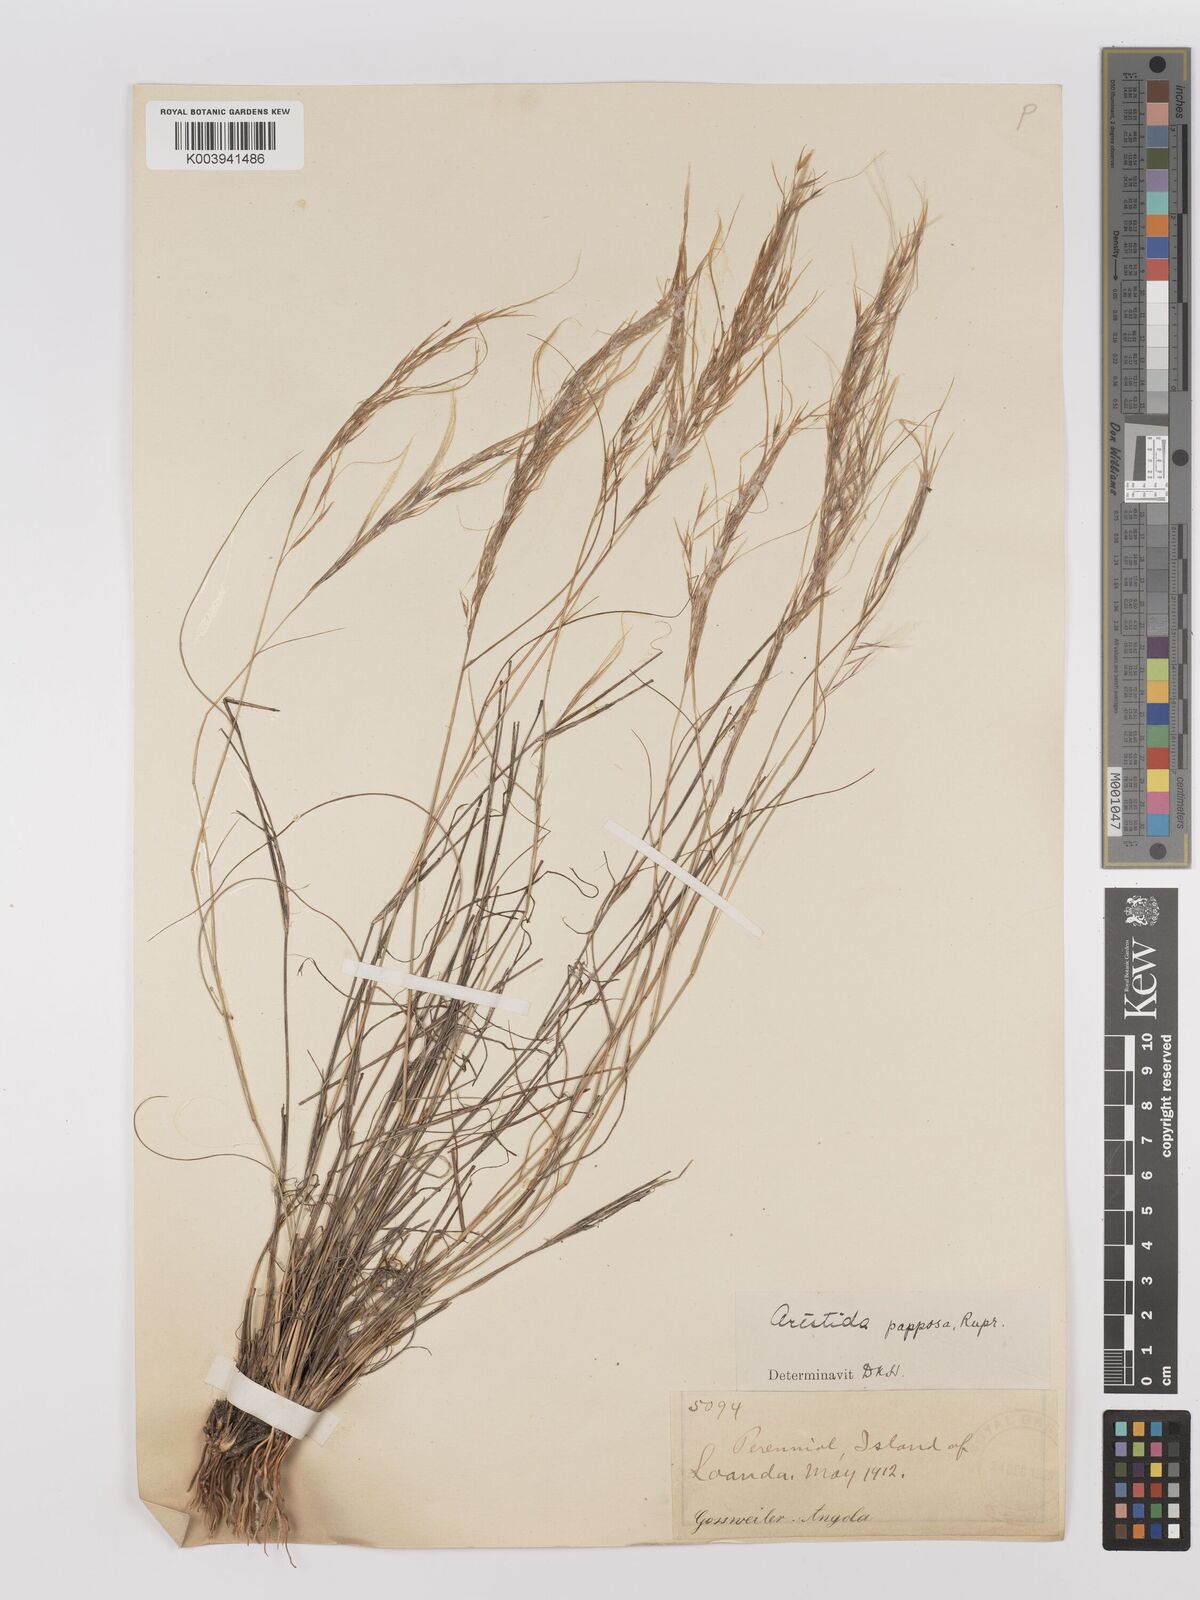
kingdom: Plantae
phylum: Tracheophyta
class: Liliopsida
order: Poales
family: Poaceae
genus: Stipagrostis
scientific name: Stipagrostis uniplumis
